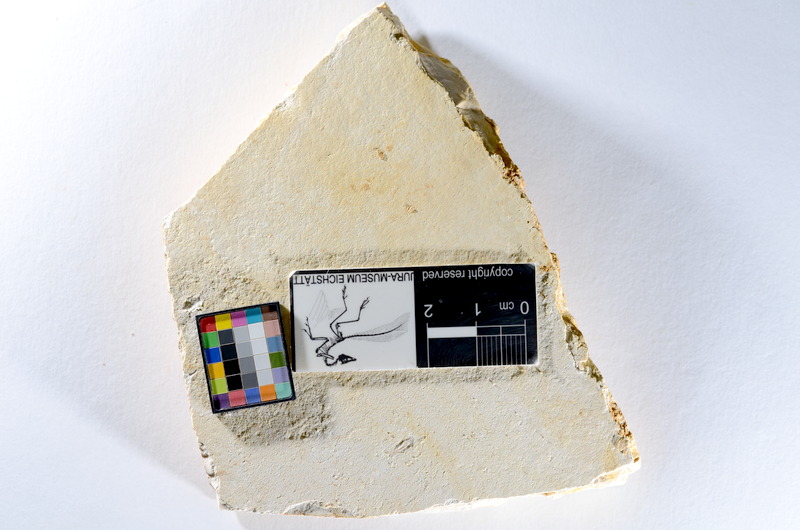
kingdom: Animalia
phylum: Chordata
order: Salmoniformes
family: Orthogonikleithridae
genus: Orthogonikleithrus
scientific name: Orthogonikleithrus hoelli
